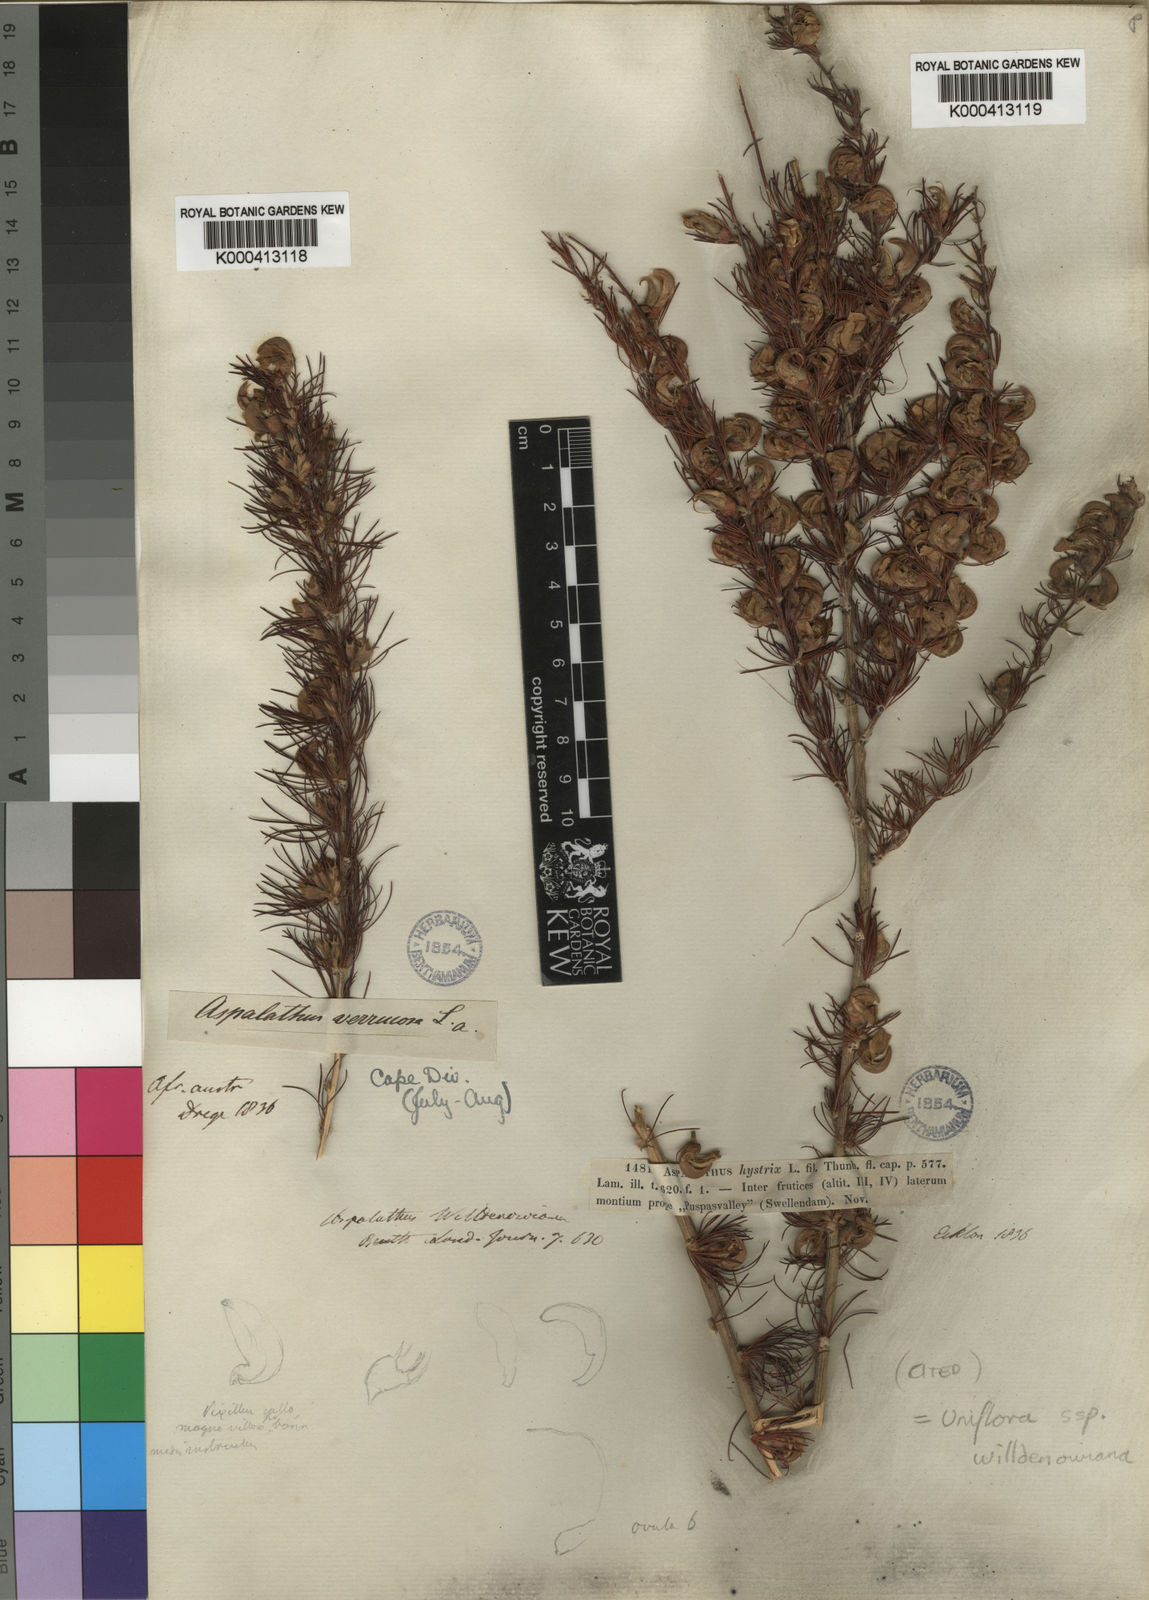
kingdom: Plantae
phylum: Tracheophyta
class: Magnoliopsida
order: Fabales
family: Fabaceae
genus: Aspalathus
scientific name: Aspalathus uniflora
